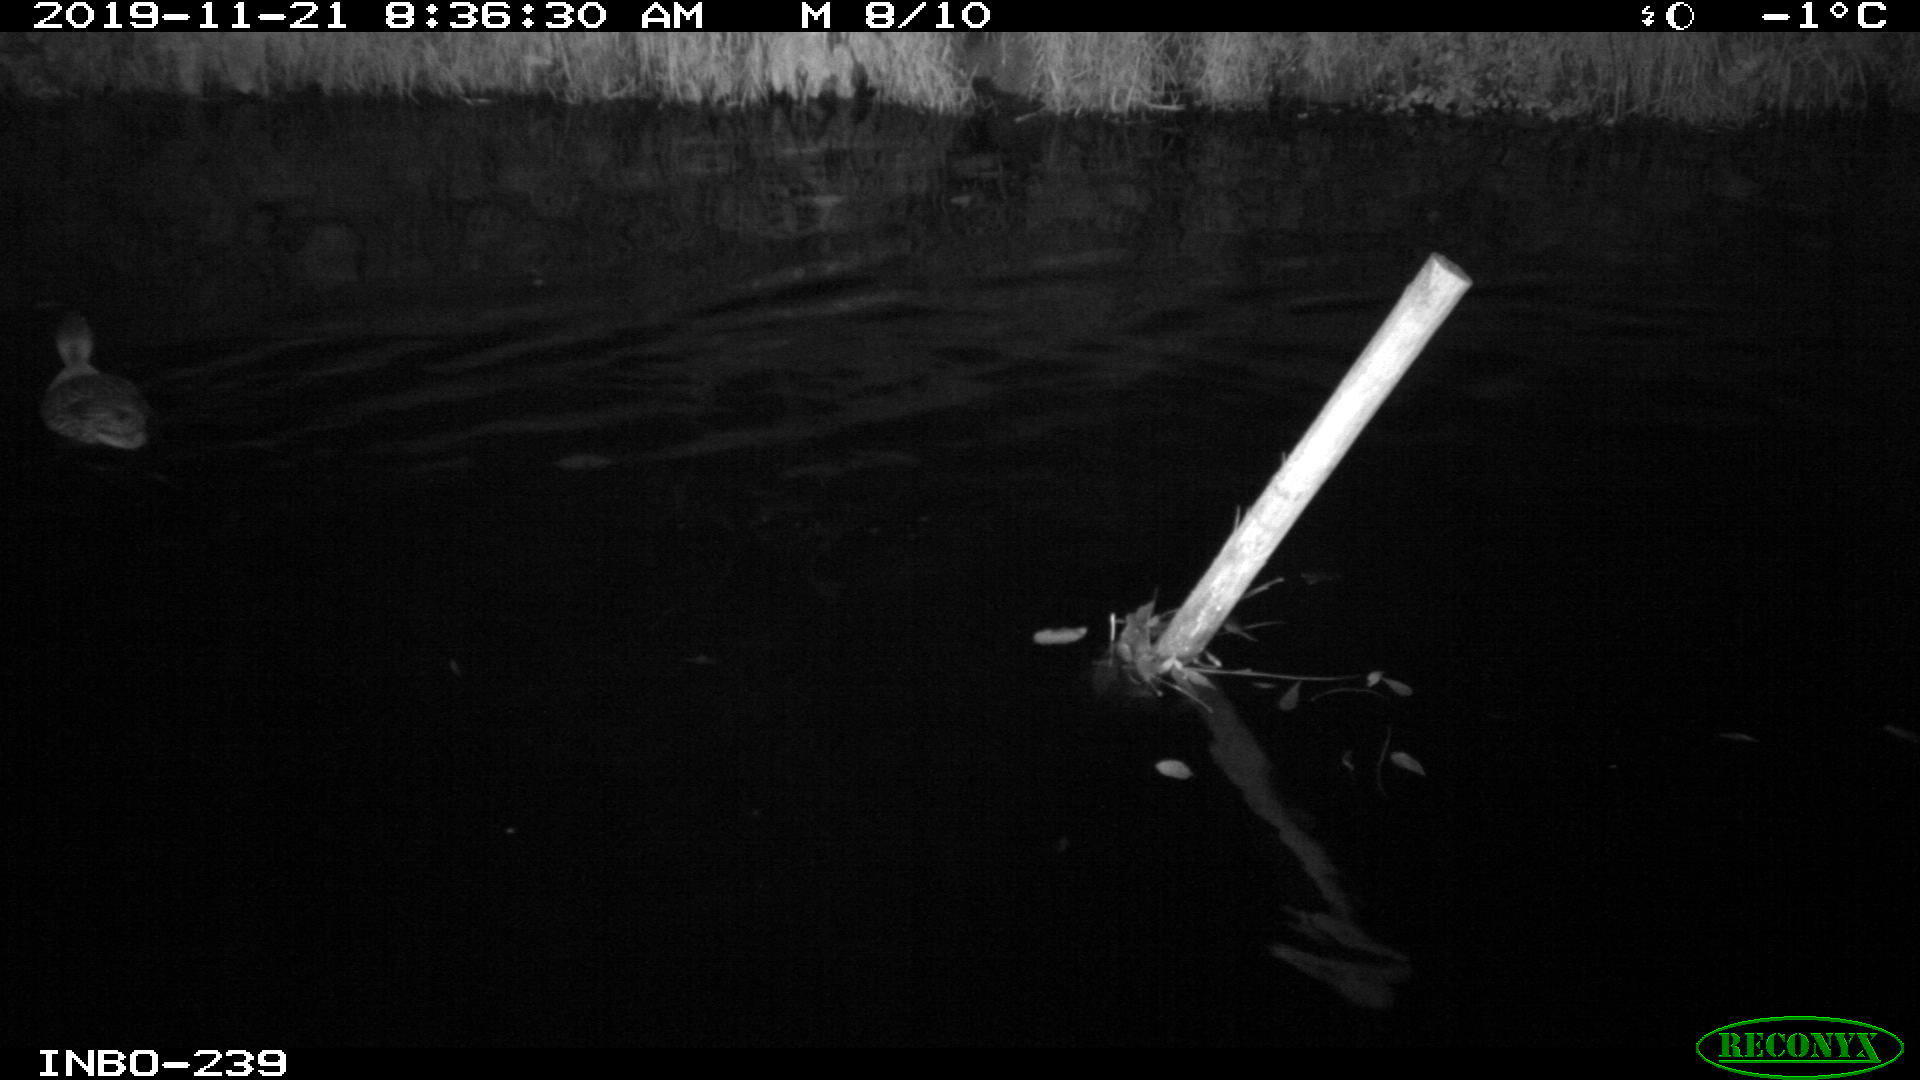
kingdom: Animalia
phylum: Chordata
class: Aves
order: Anseriformes
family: Anatidae
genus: Anas
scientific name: Anas platyrhynchos
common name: Mallard
